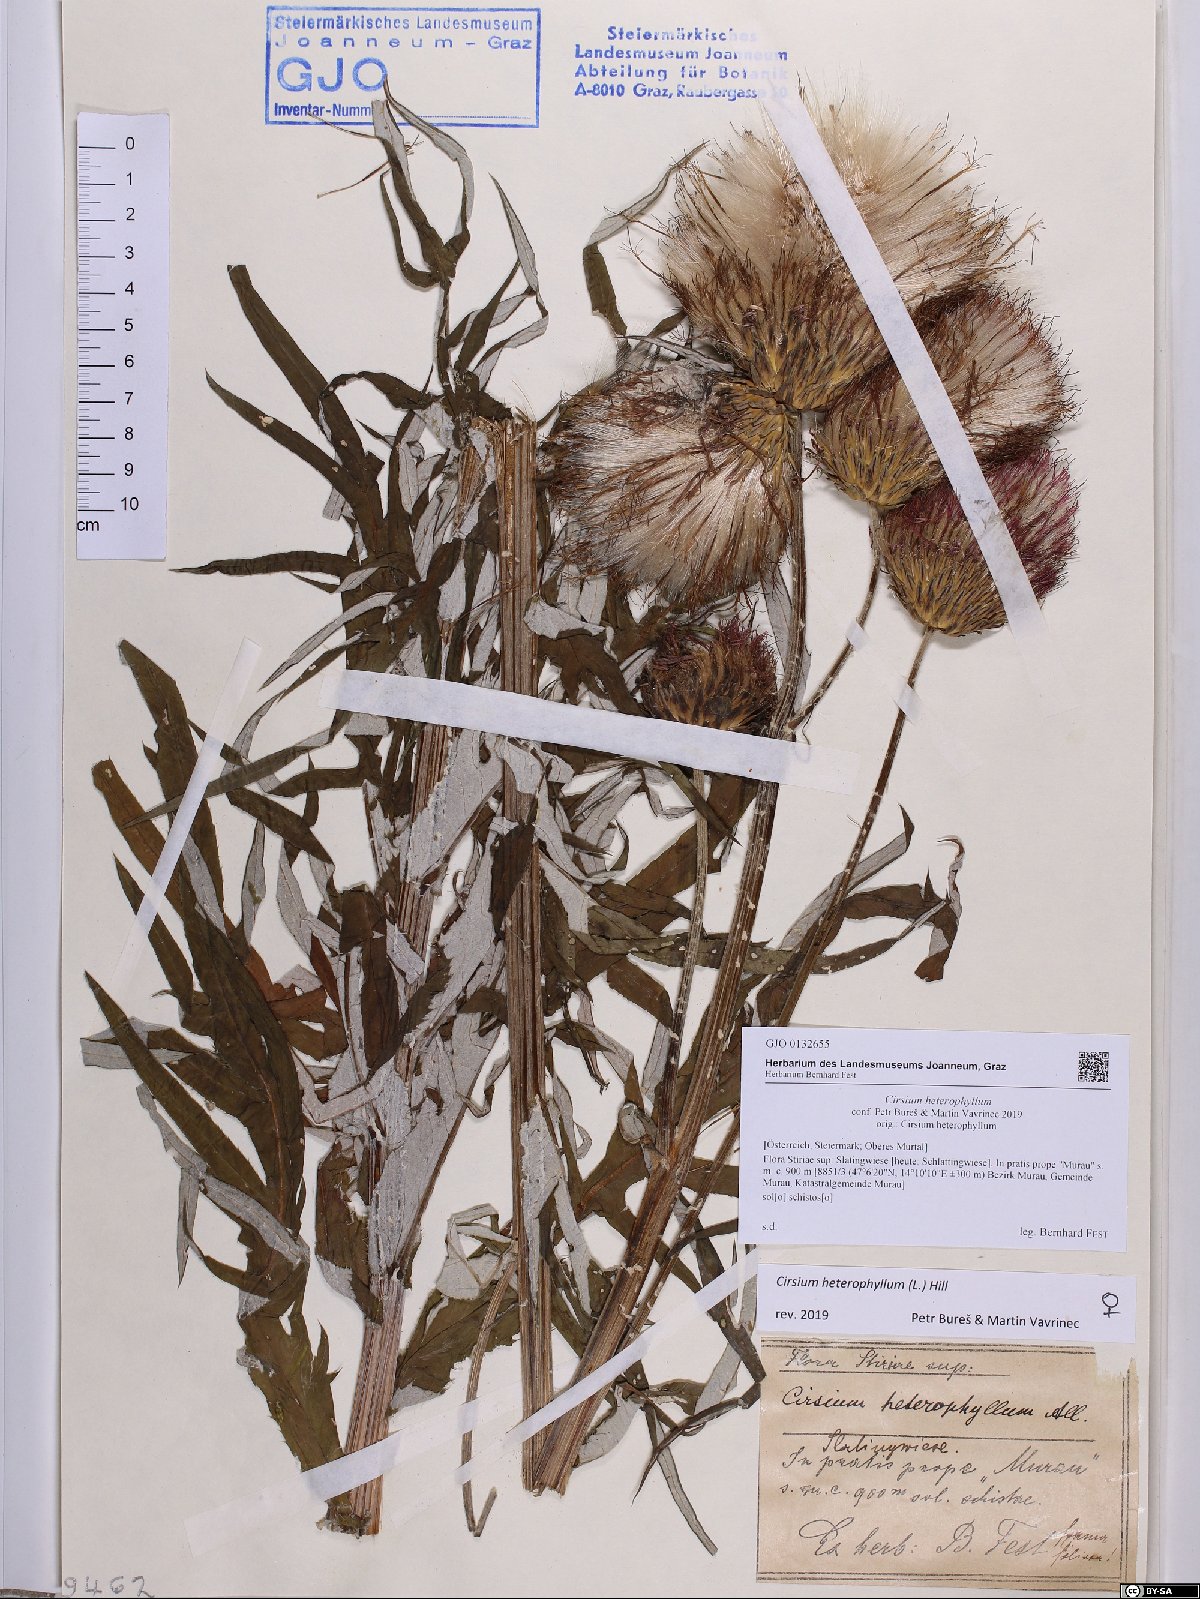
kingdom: Plantae
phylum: Tracheophyta
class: Magnoliopsida
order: Asterales
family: Asteraceae
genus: Cirsium
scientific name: Cirsium heterophyllum
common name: Melancholy thistle
